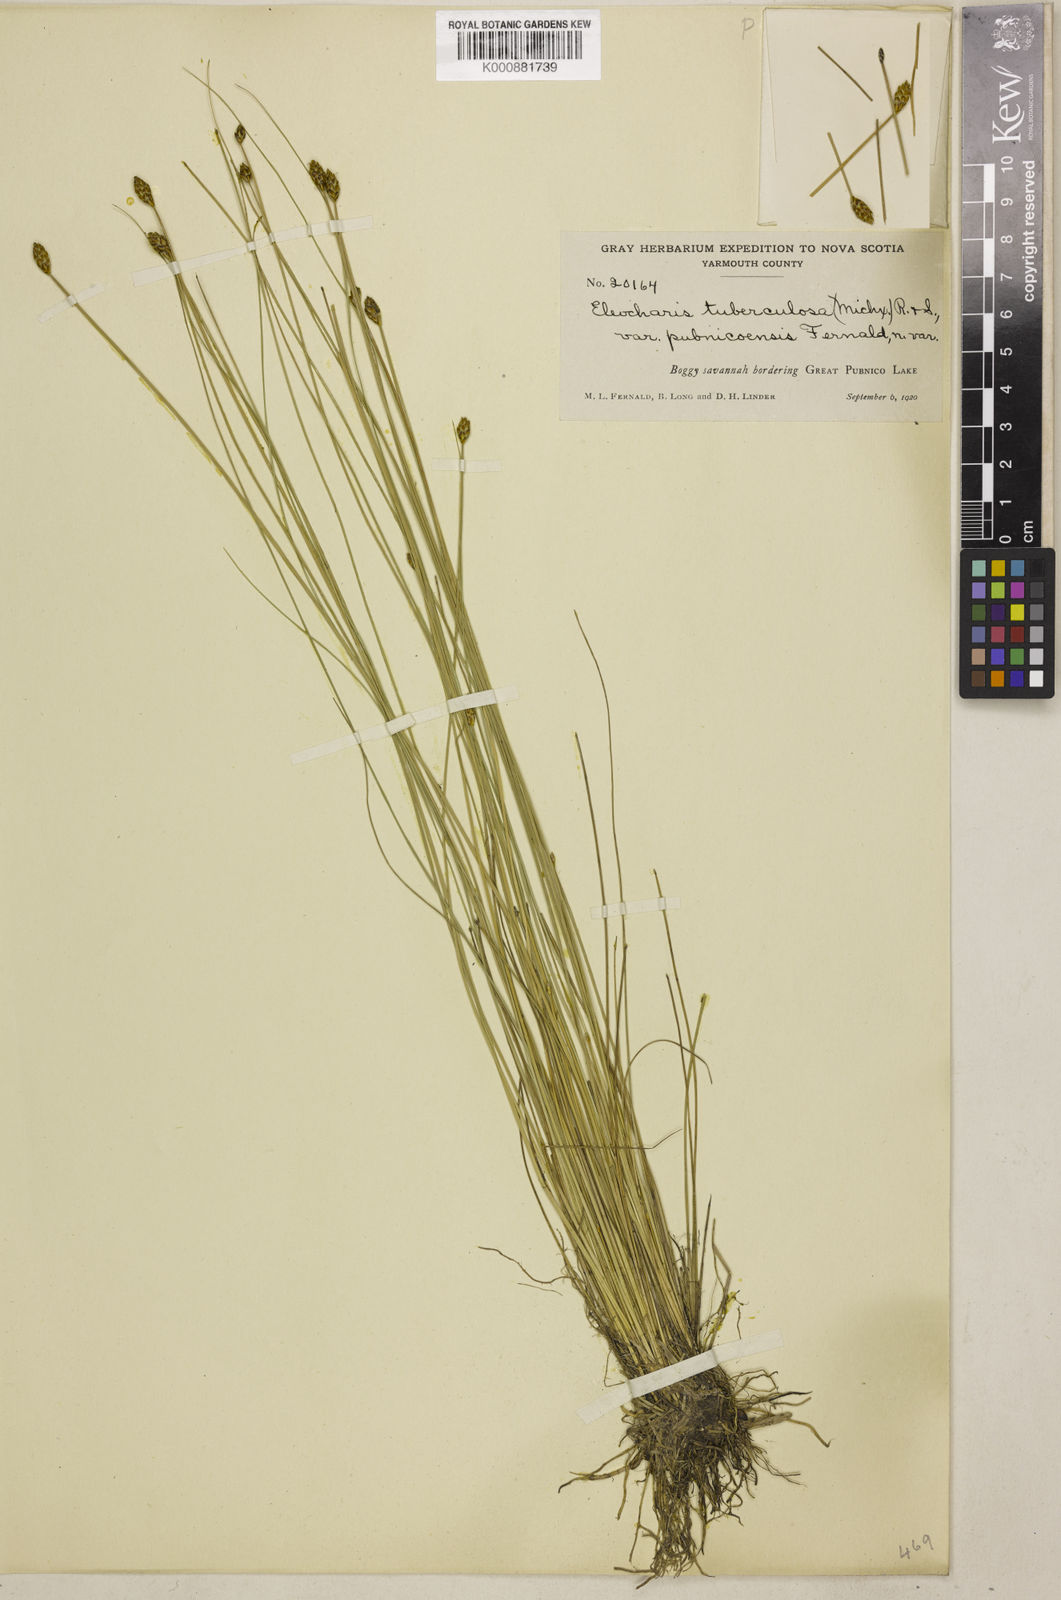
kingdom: Plantae
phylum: Tracheophyta
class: Liliopsida
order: Poales
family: Cyperaceae
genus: Eleocharis
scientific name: Eleocharis tuberculosa
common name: Cone-cup spikerush
